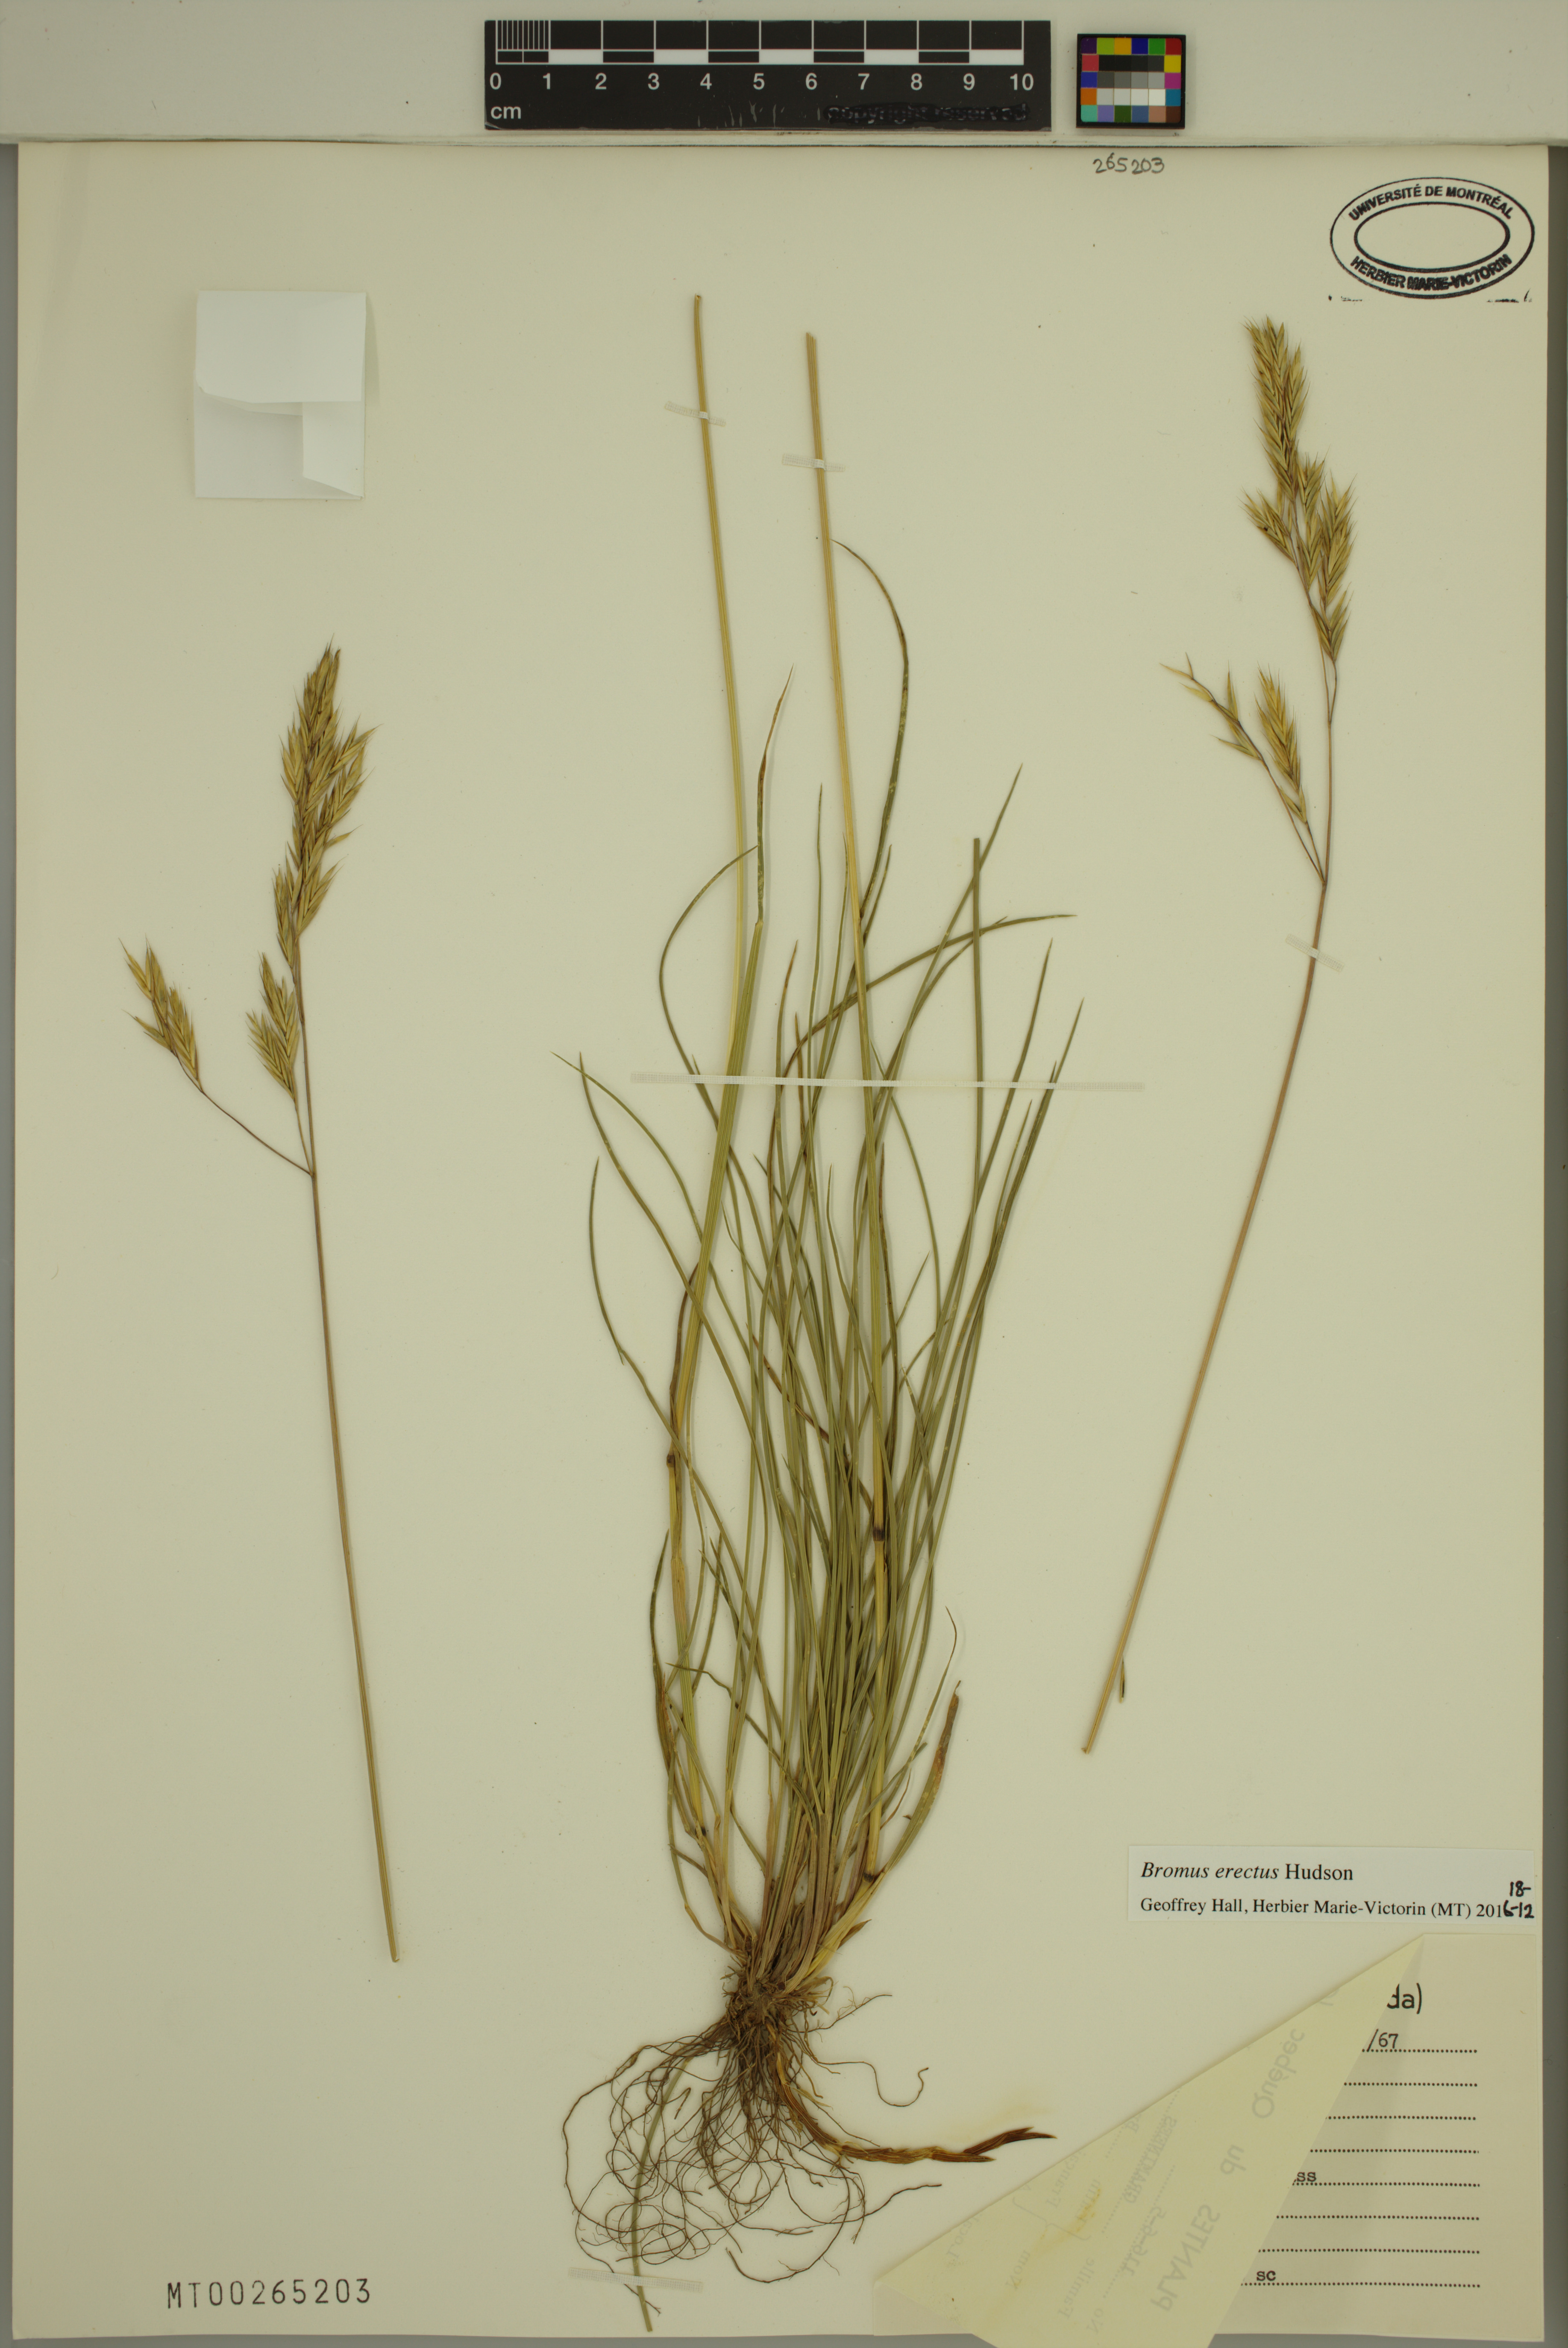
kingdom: Plantae
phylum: Tracheophyta
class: Liliopsida
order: Poales
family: Poaceae
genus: Bromus
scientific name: Bromus erectus
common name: Erect brome
